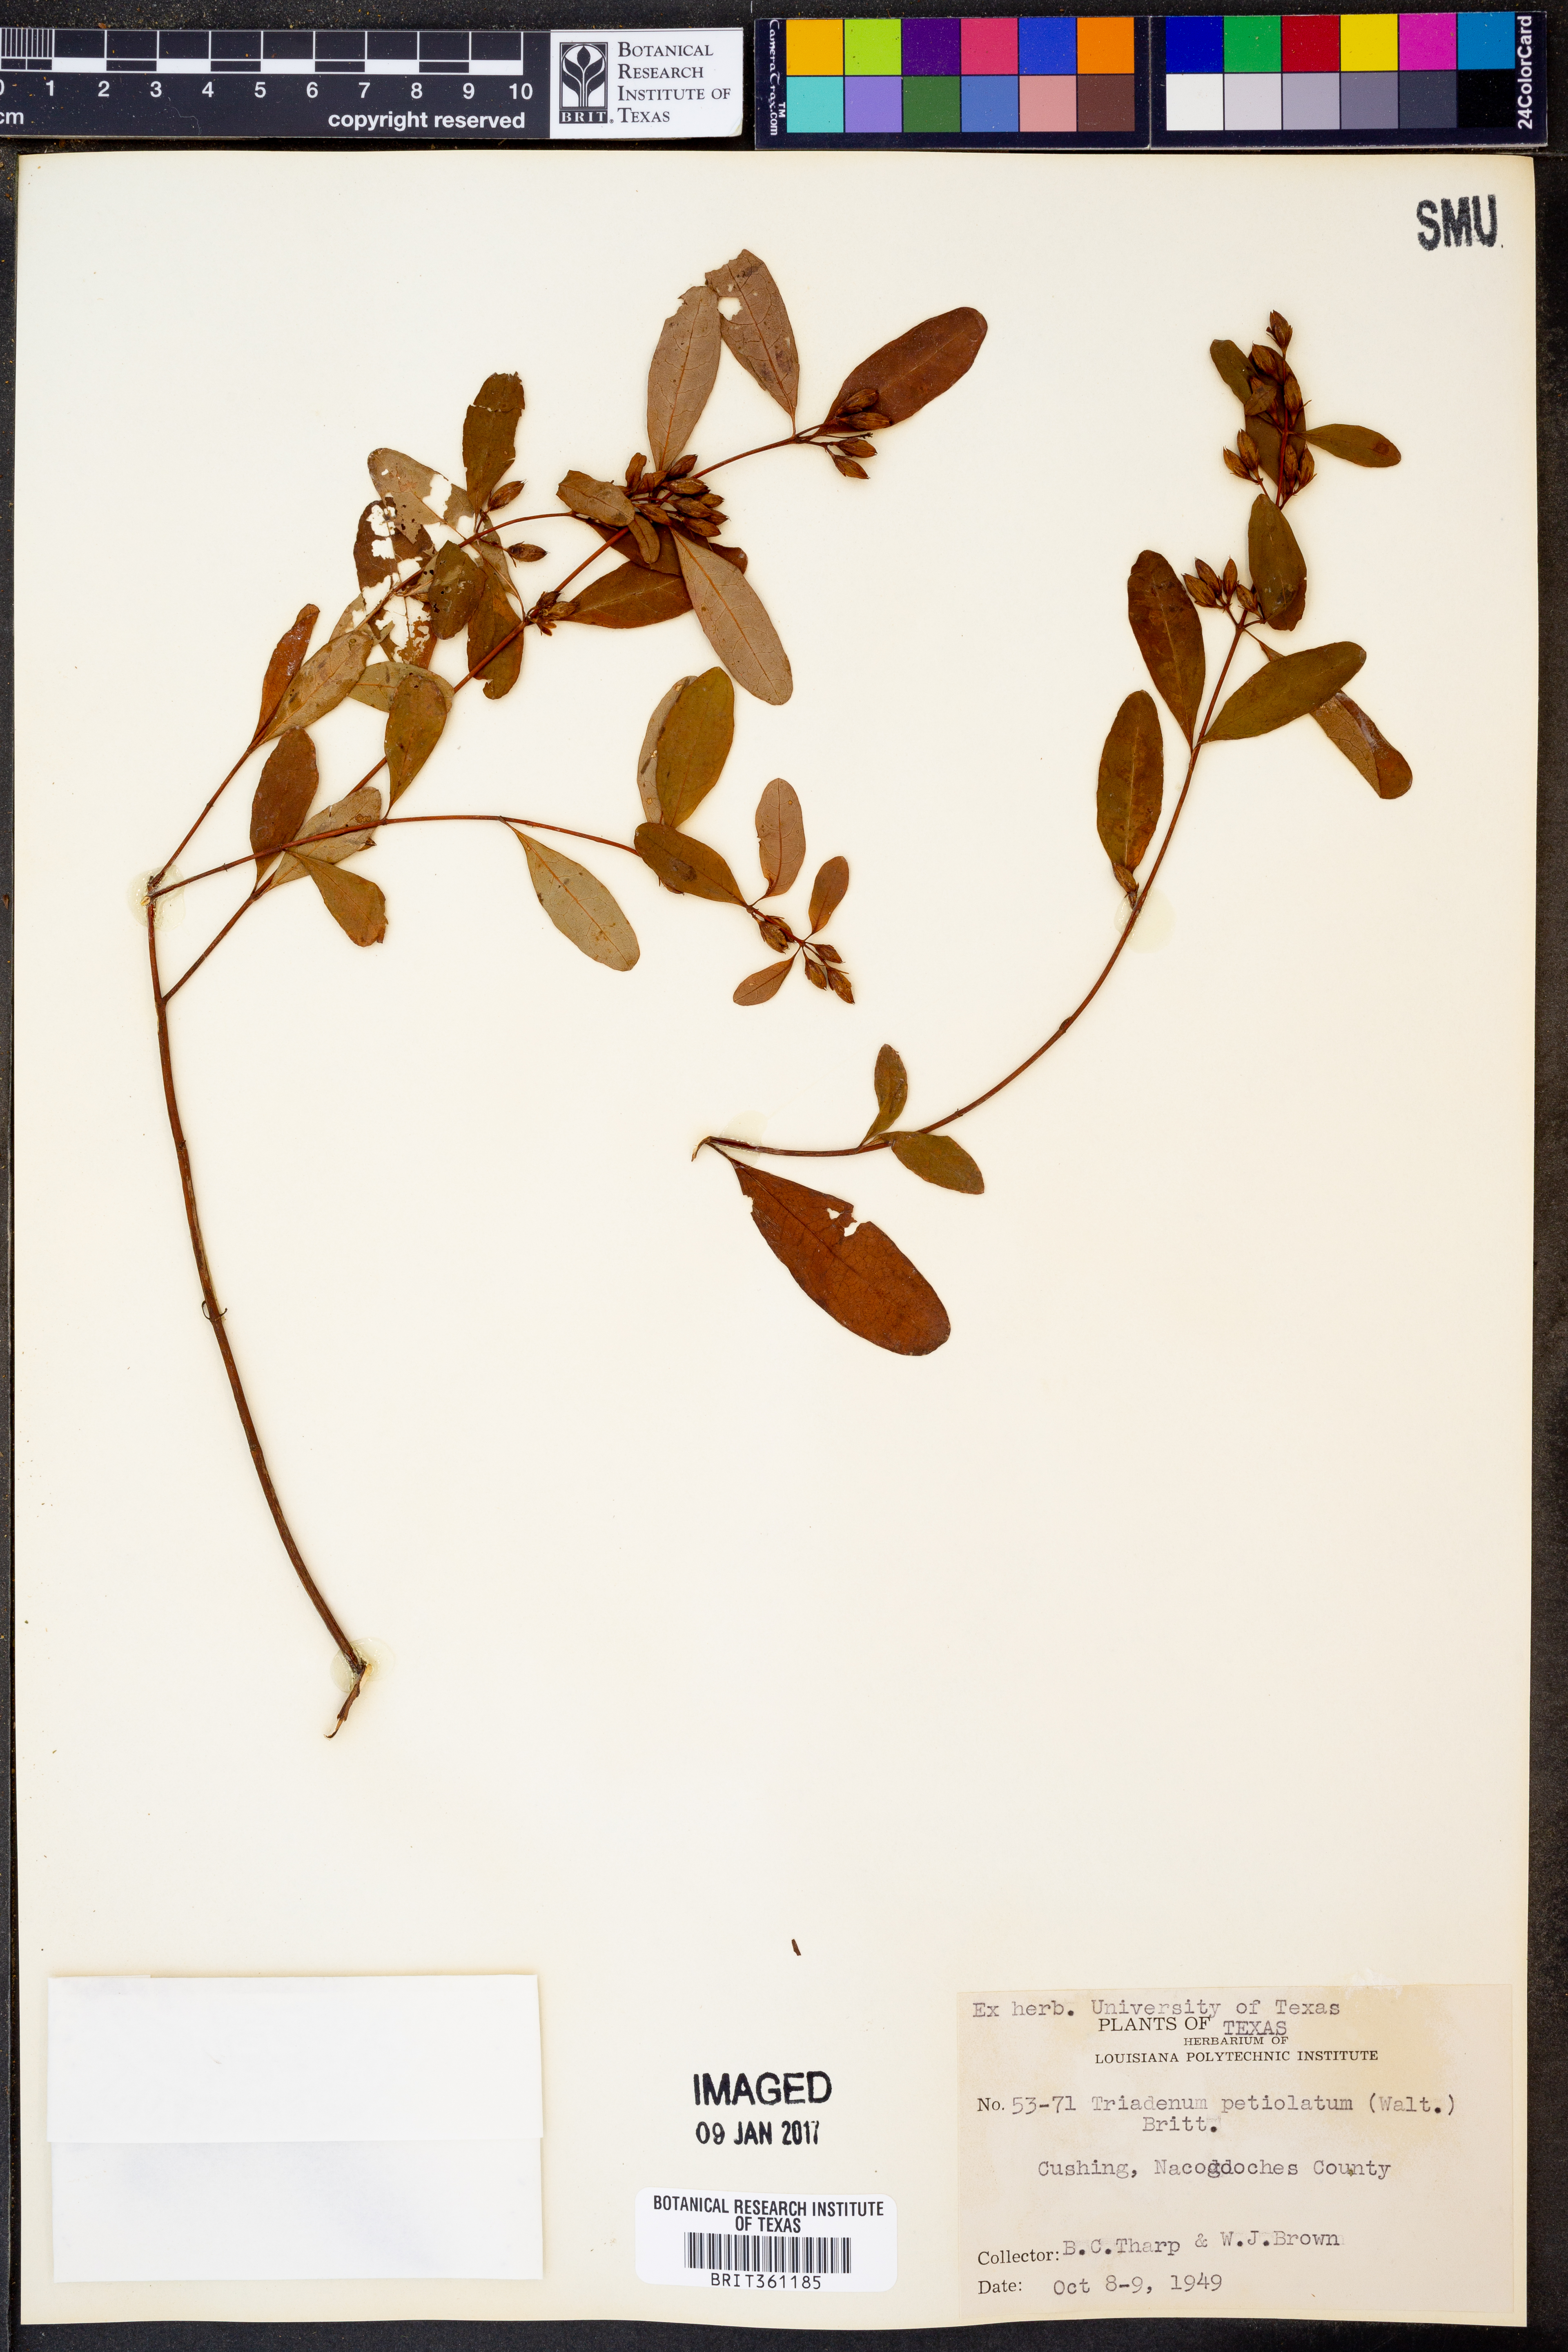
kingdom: Plantae
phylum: Tracheophyta
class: Magnoliopsida
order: Malpighiales
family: Hypericaceae
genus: Triadenum
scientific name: Triadenum walteri
